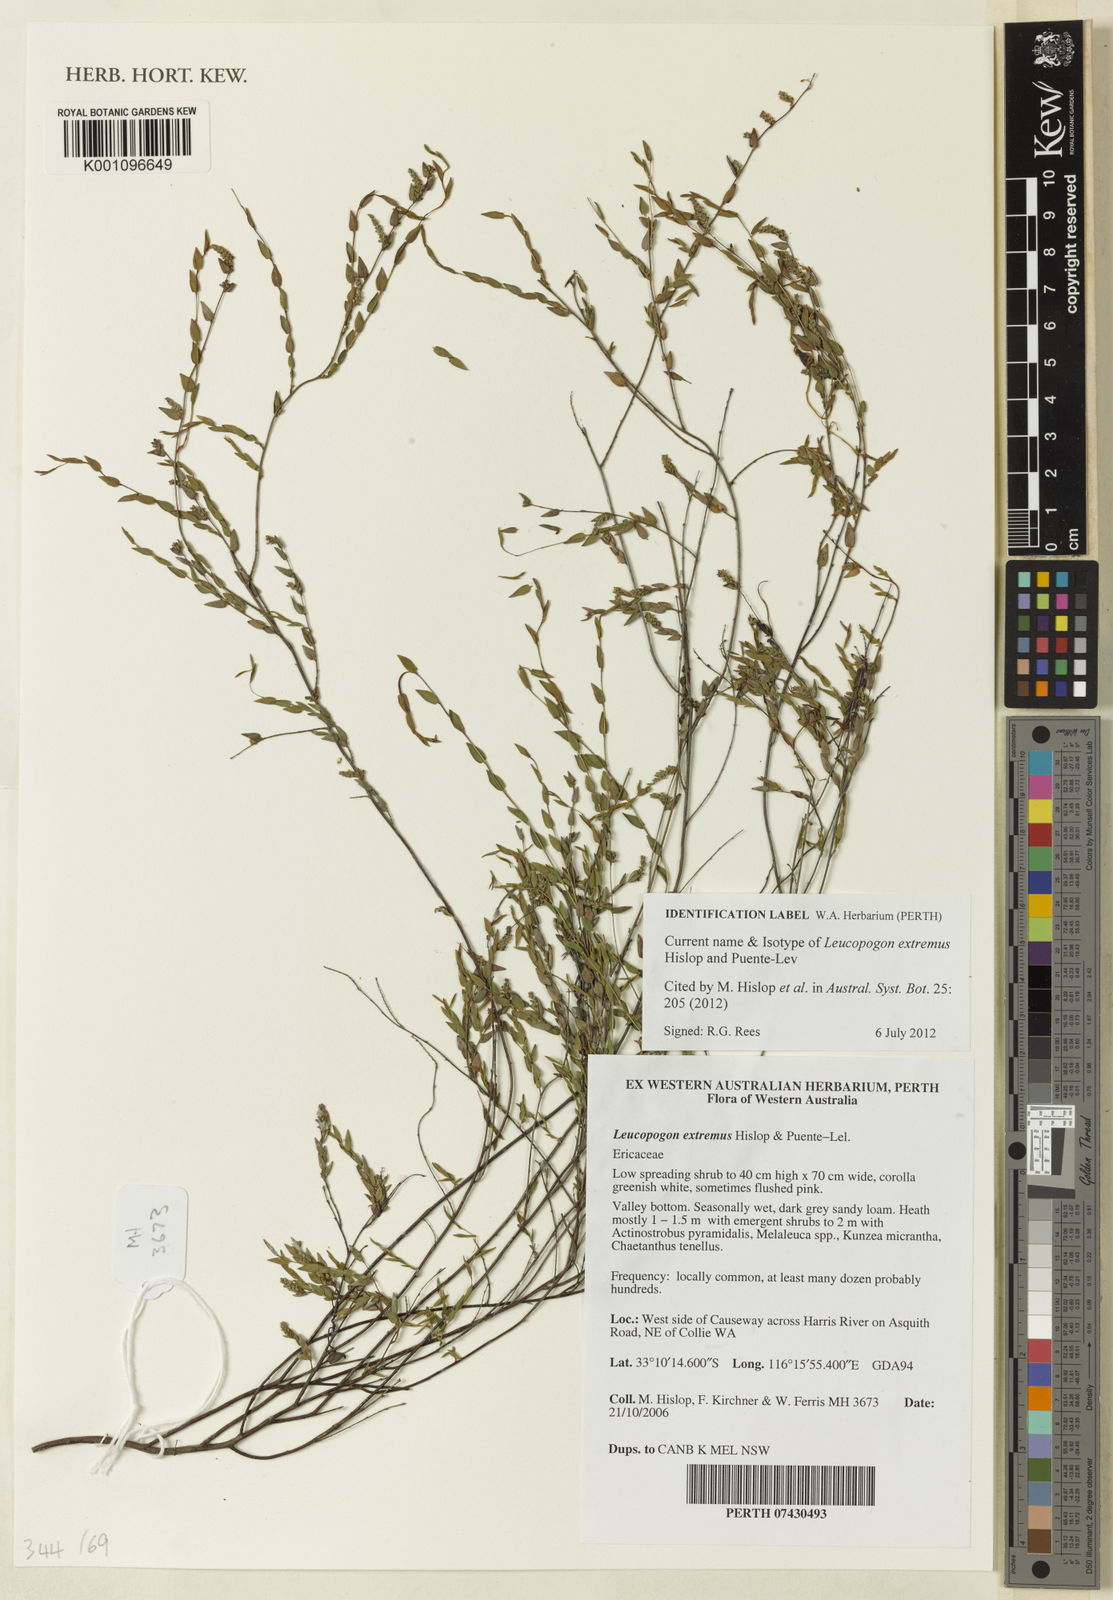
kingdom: Plantae
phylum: Tracheophyta
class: Magnoliopsida
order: Ericales
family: Ericaceae
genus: Leucopogon
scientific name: Leucopogon extremus
